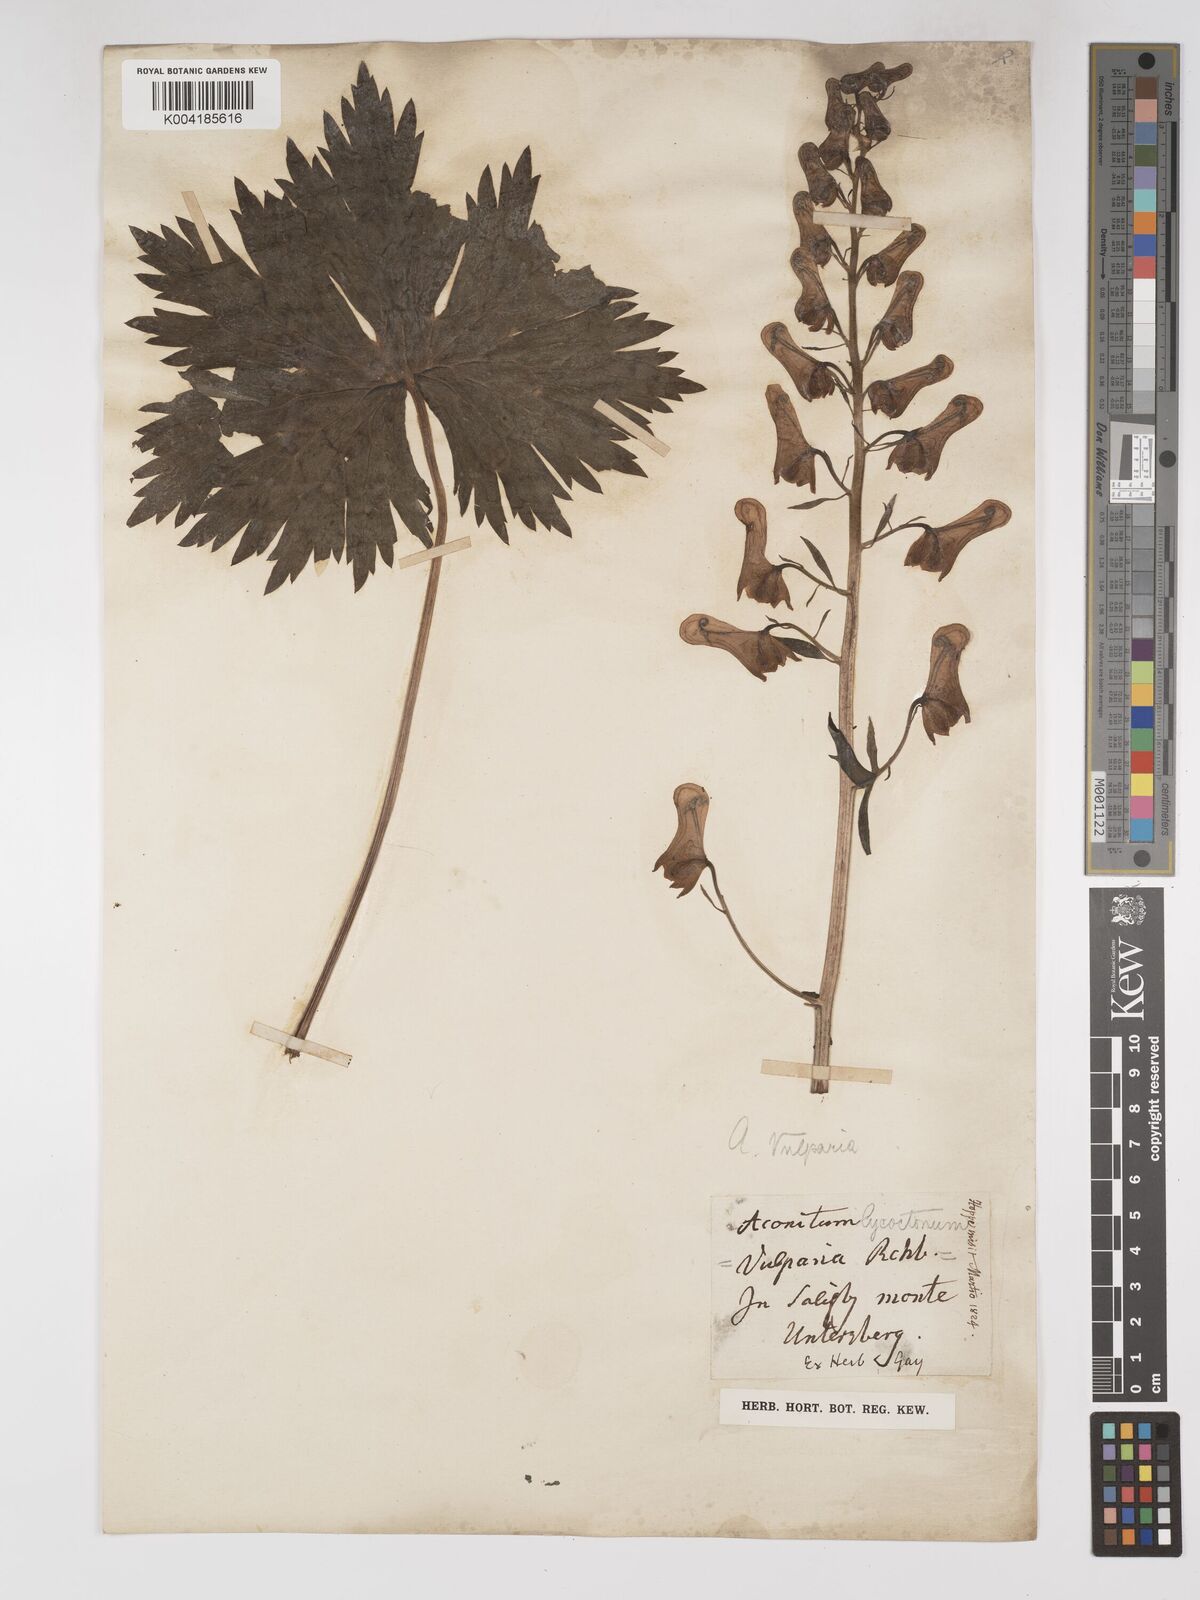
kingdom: Plantae
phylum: Tracheophyta
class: Magnoliopsida
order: Ranunculales
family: Ranunculaceae
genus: Aconitum
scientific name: Aconitum lycoctonum
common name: Wolf's-bane
